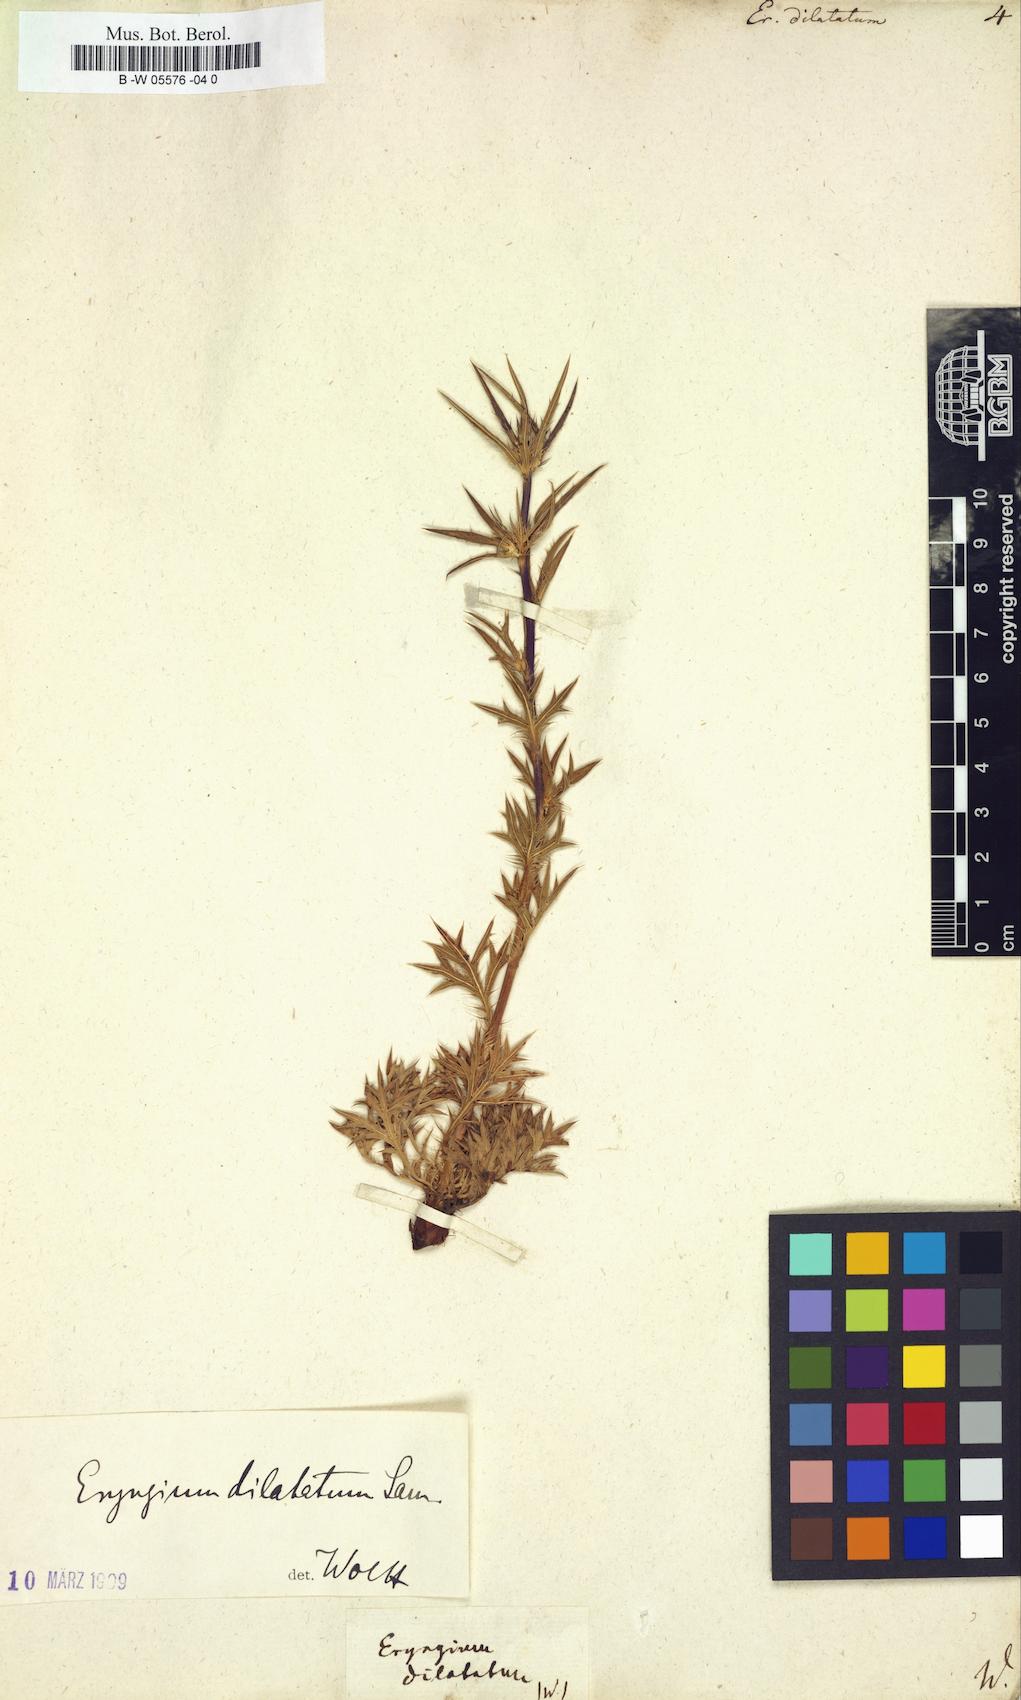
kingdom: Plantae
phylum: Tracheophyta
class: Magnoliopsida
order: Apiales
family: Apiaceae
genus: Eryngium
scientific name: Eryngium dilatatum
